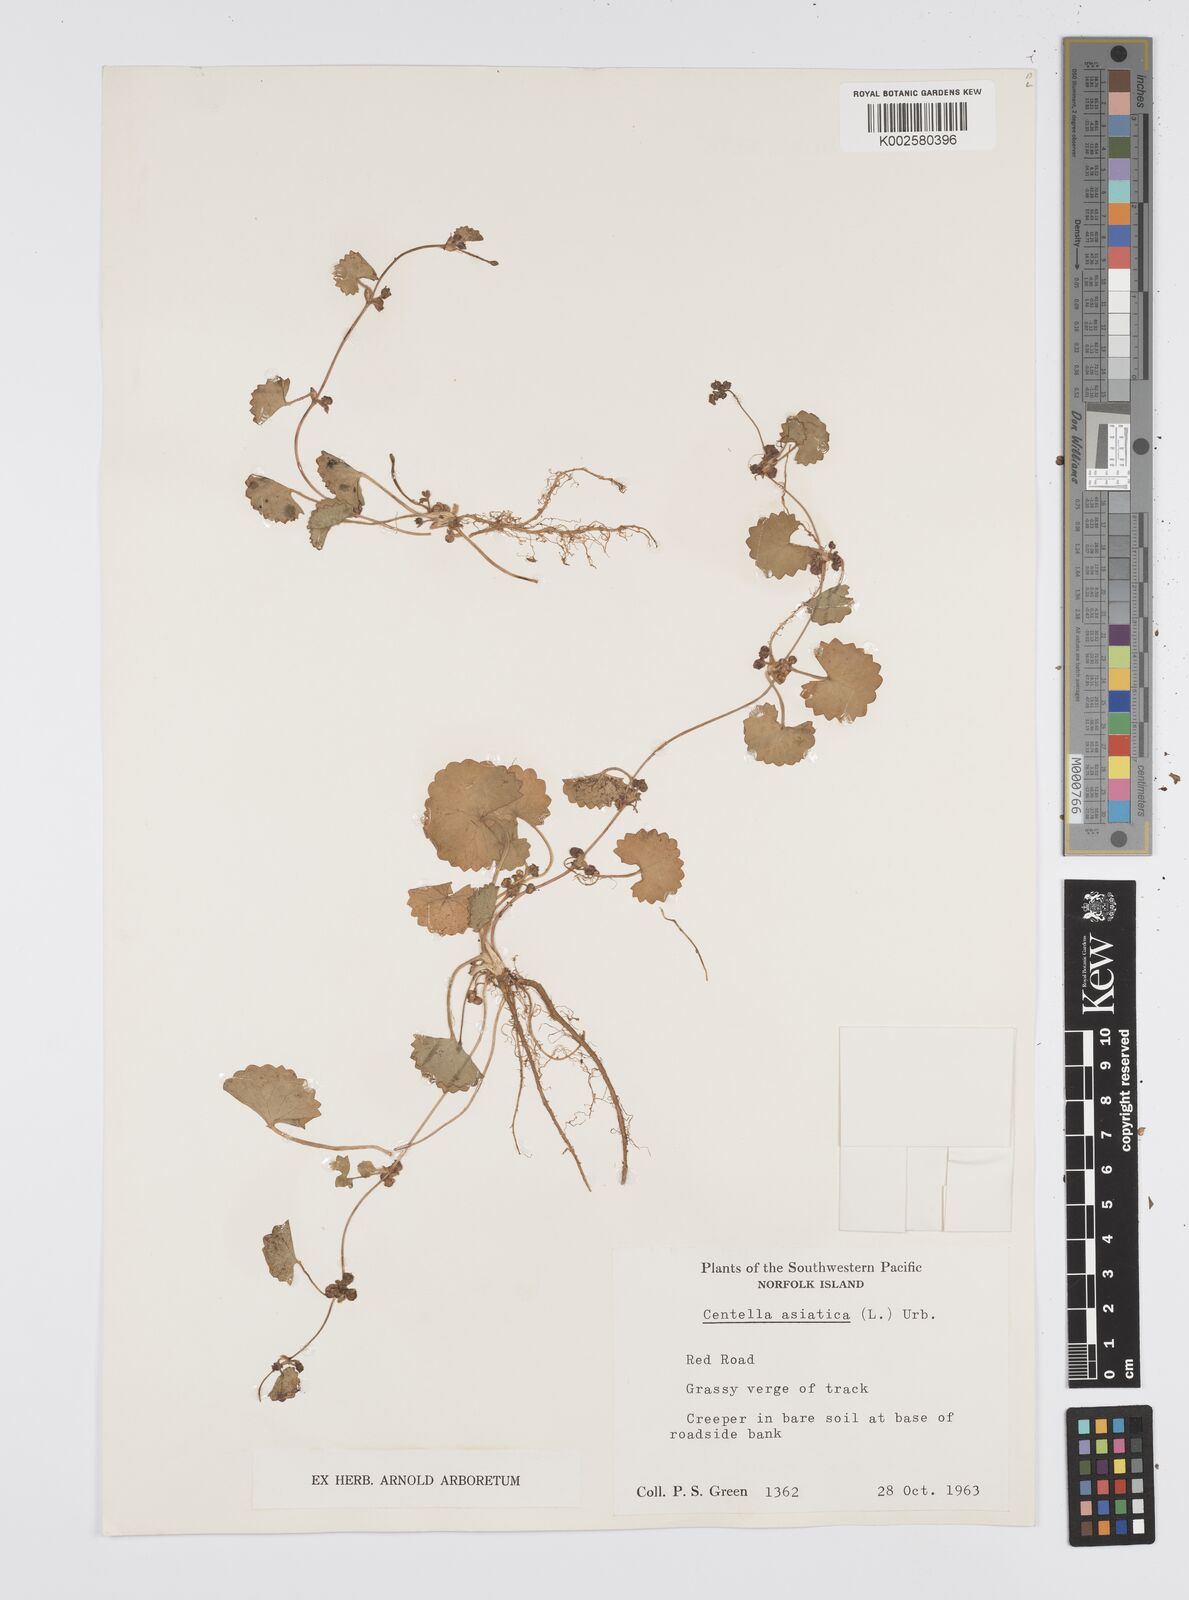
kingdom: Plantae
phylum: Tracheophyta
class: Magnoliopsida
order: Apiales
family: Apiaceae
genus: Centella
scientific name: Centella asiatica
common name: Spadeleaf
